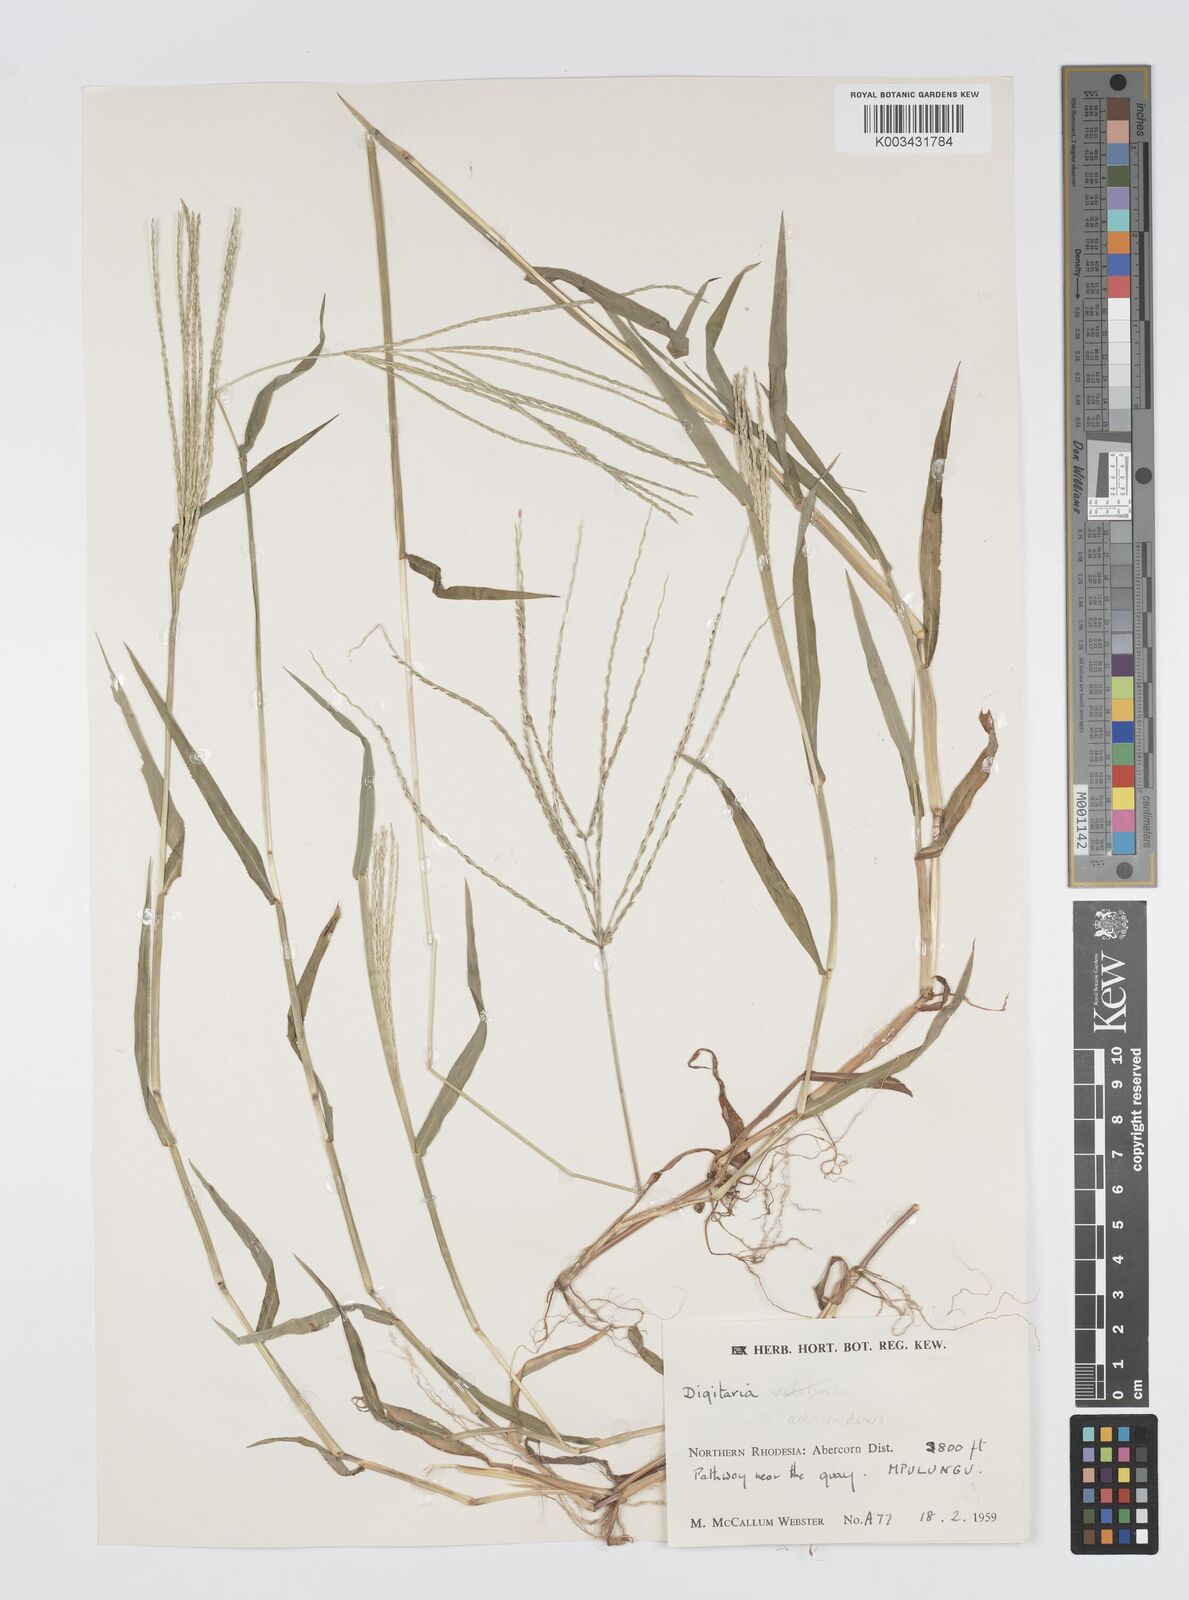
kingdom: Plantae
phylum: Tracheophyta
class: Liliopsida
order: Poales
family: Poaceae
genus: Digitaria
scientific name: Digitaria nuda
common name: Naked crabgrass
